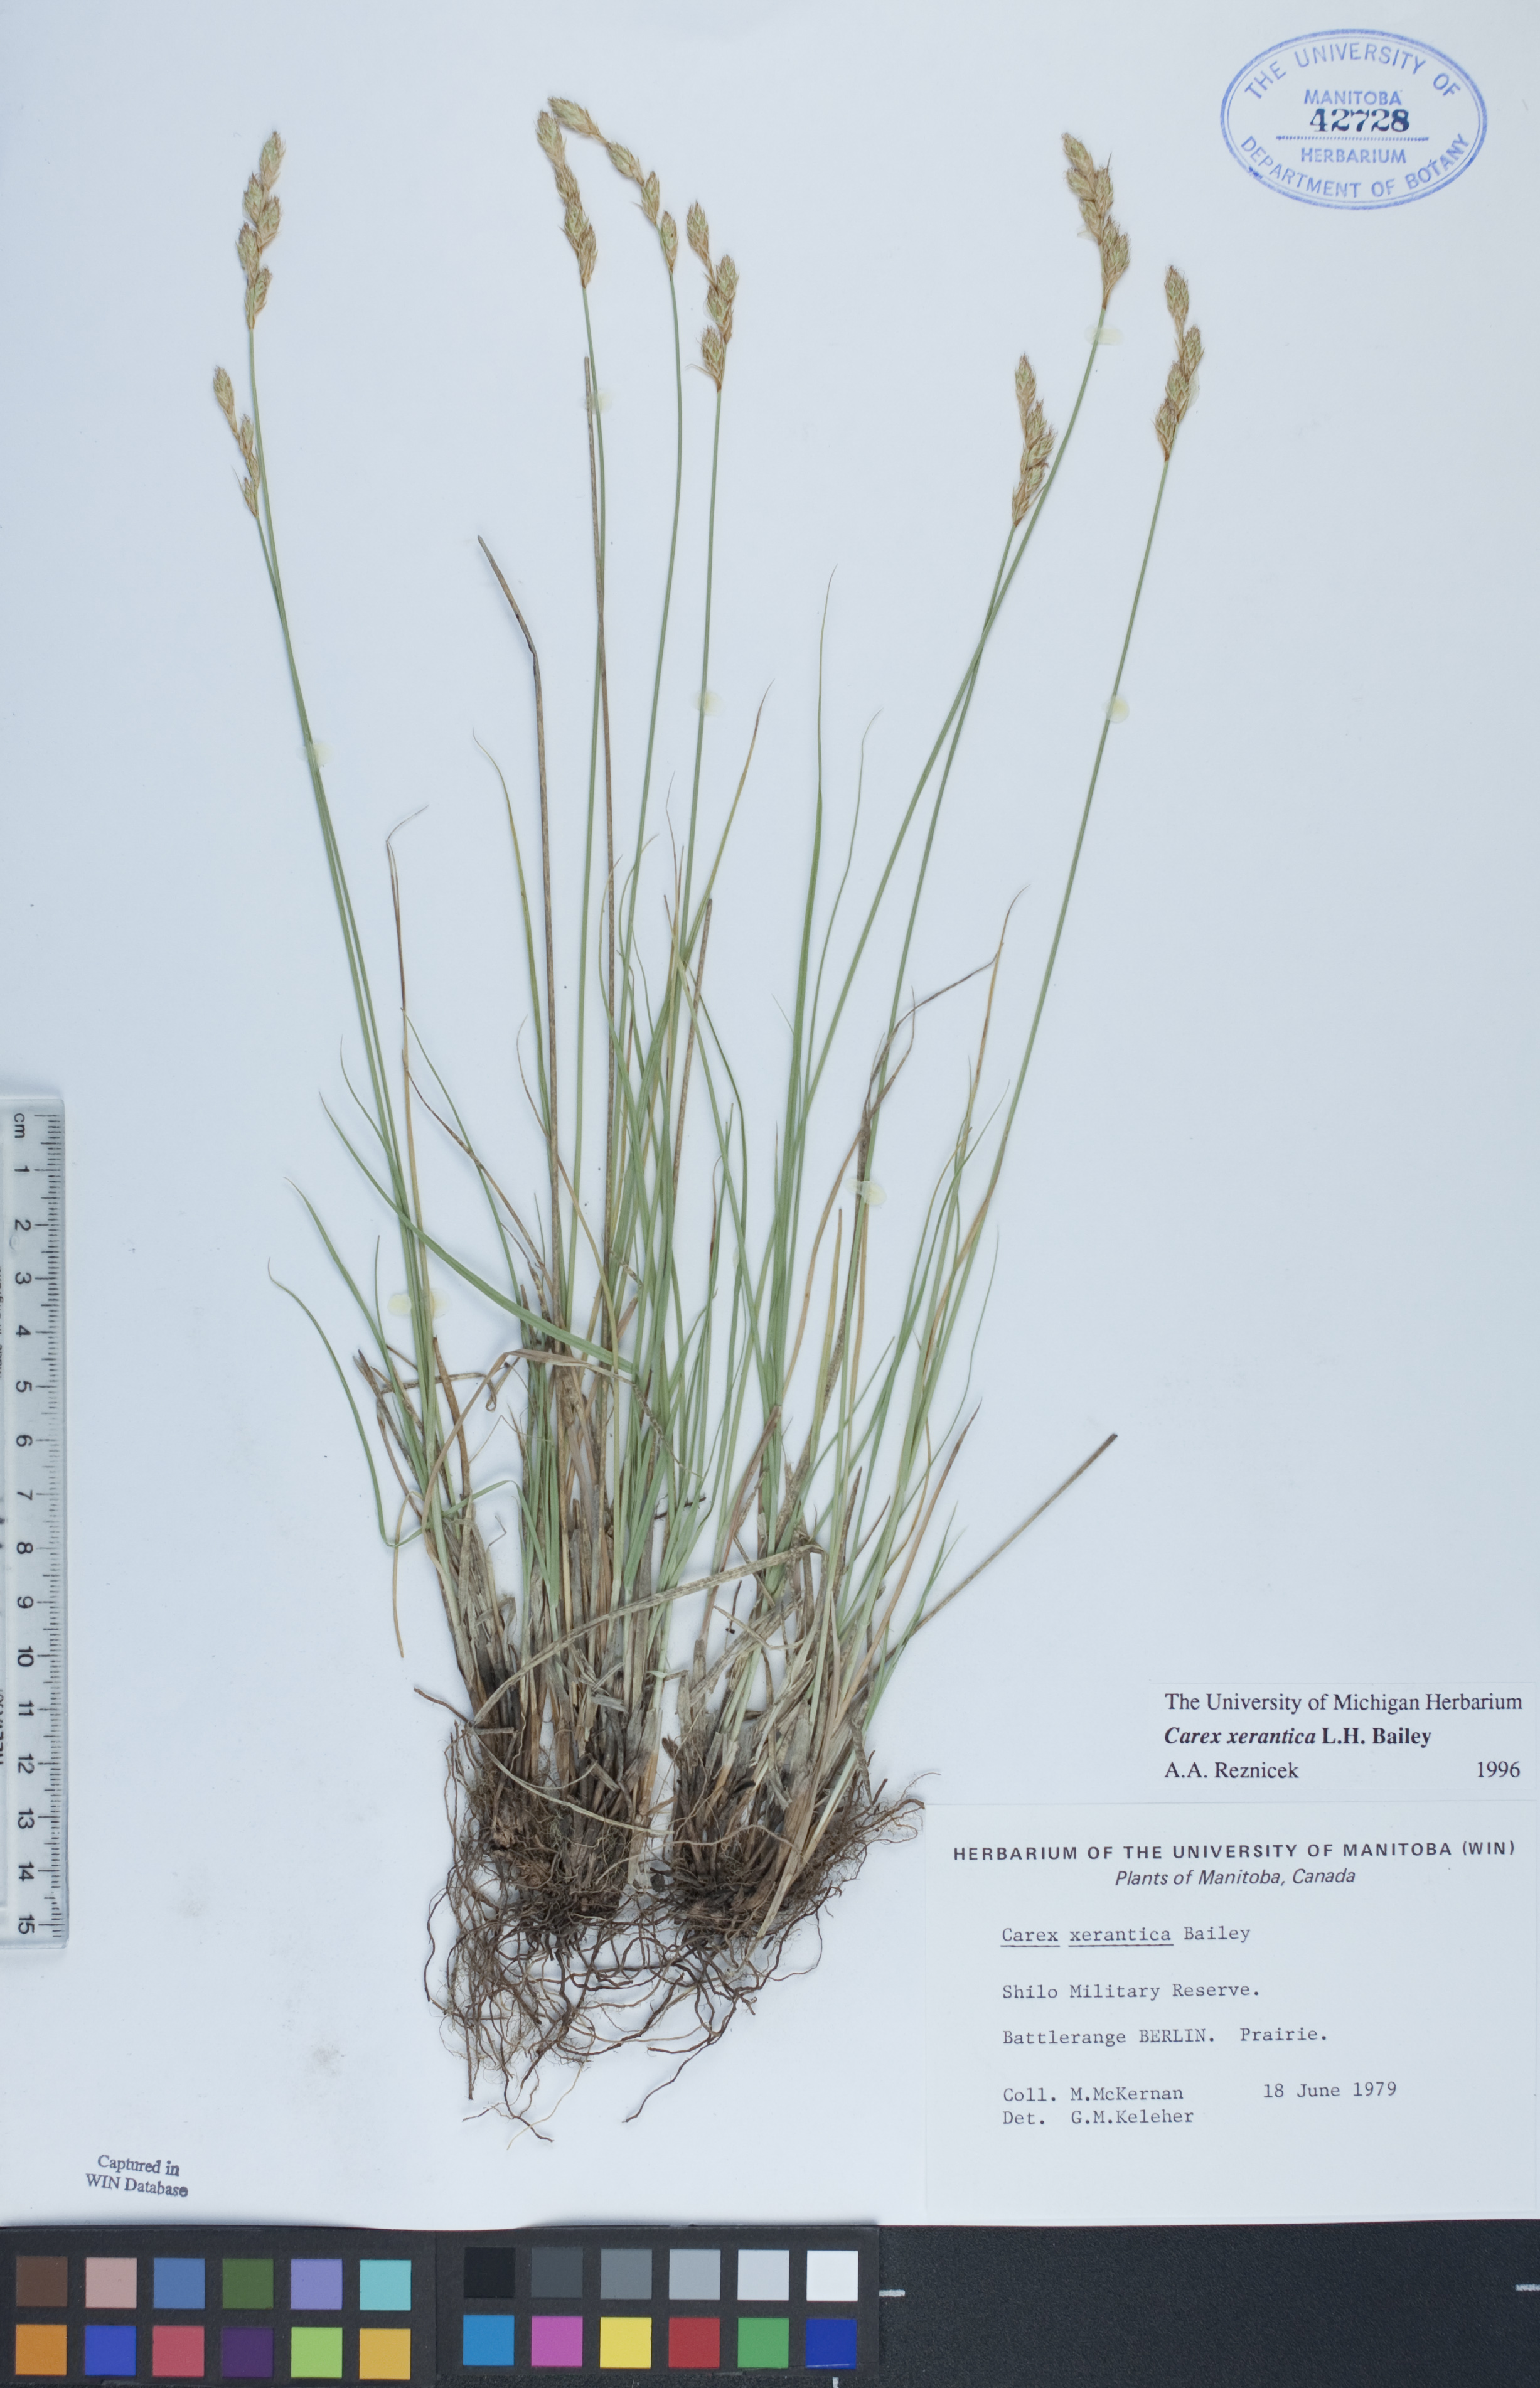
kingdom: Plantae
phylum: Tracheophyta
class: Liliopsida
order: Poales
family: Cyperaceae
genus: Carex
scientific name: Carex xerantica
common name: Dryland sedge
